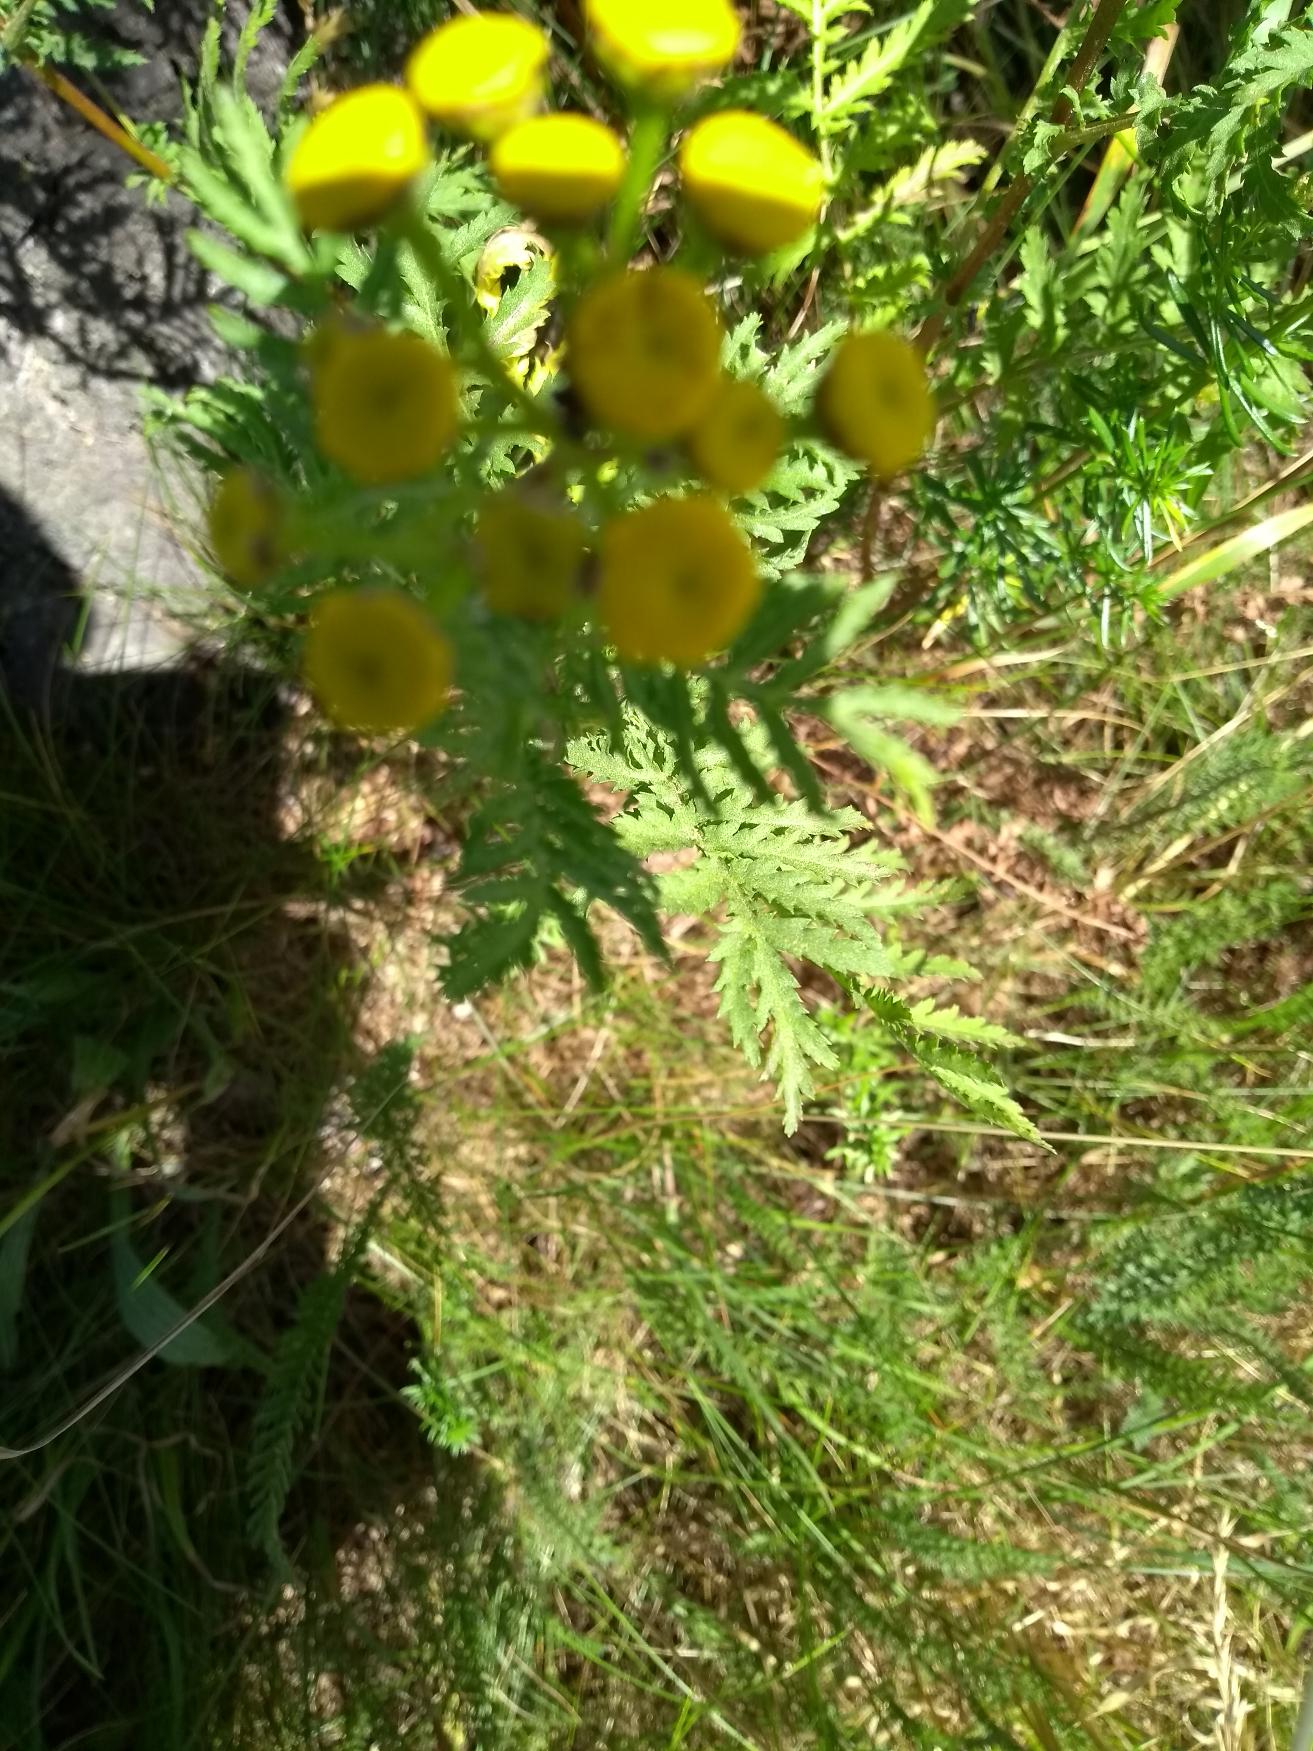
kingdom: Plantae
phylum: Tracheophyta
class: Magnoliopsida
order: Asterales
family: Asteraceae
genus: Tanacetum
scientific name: Tanacetum vulgare
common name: Rejnfan
